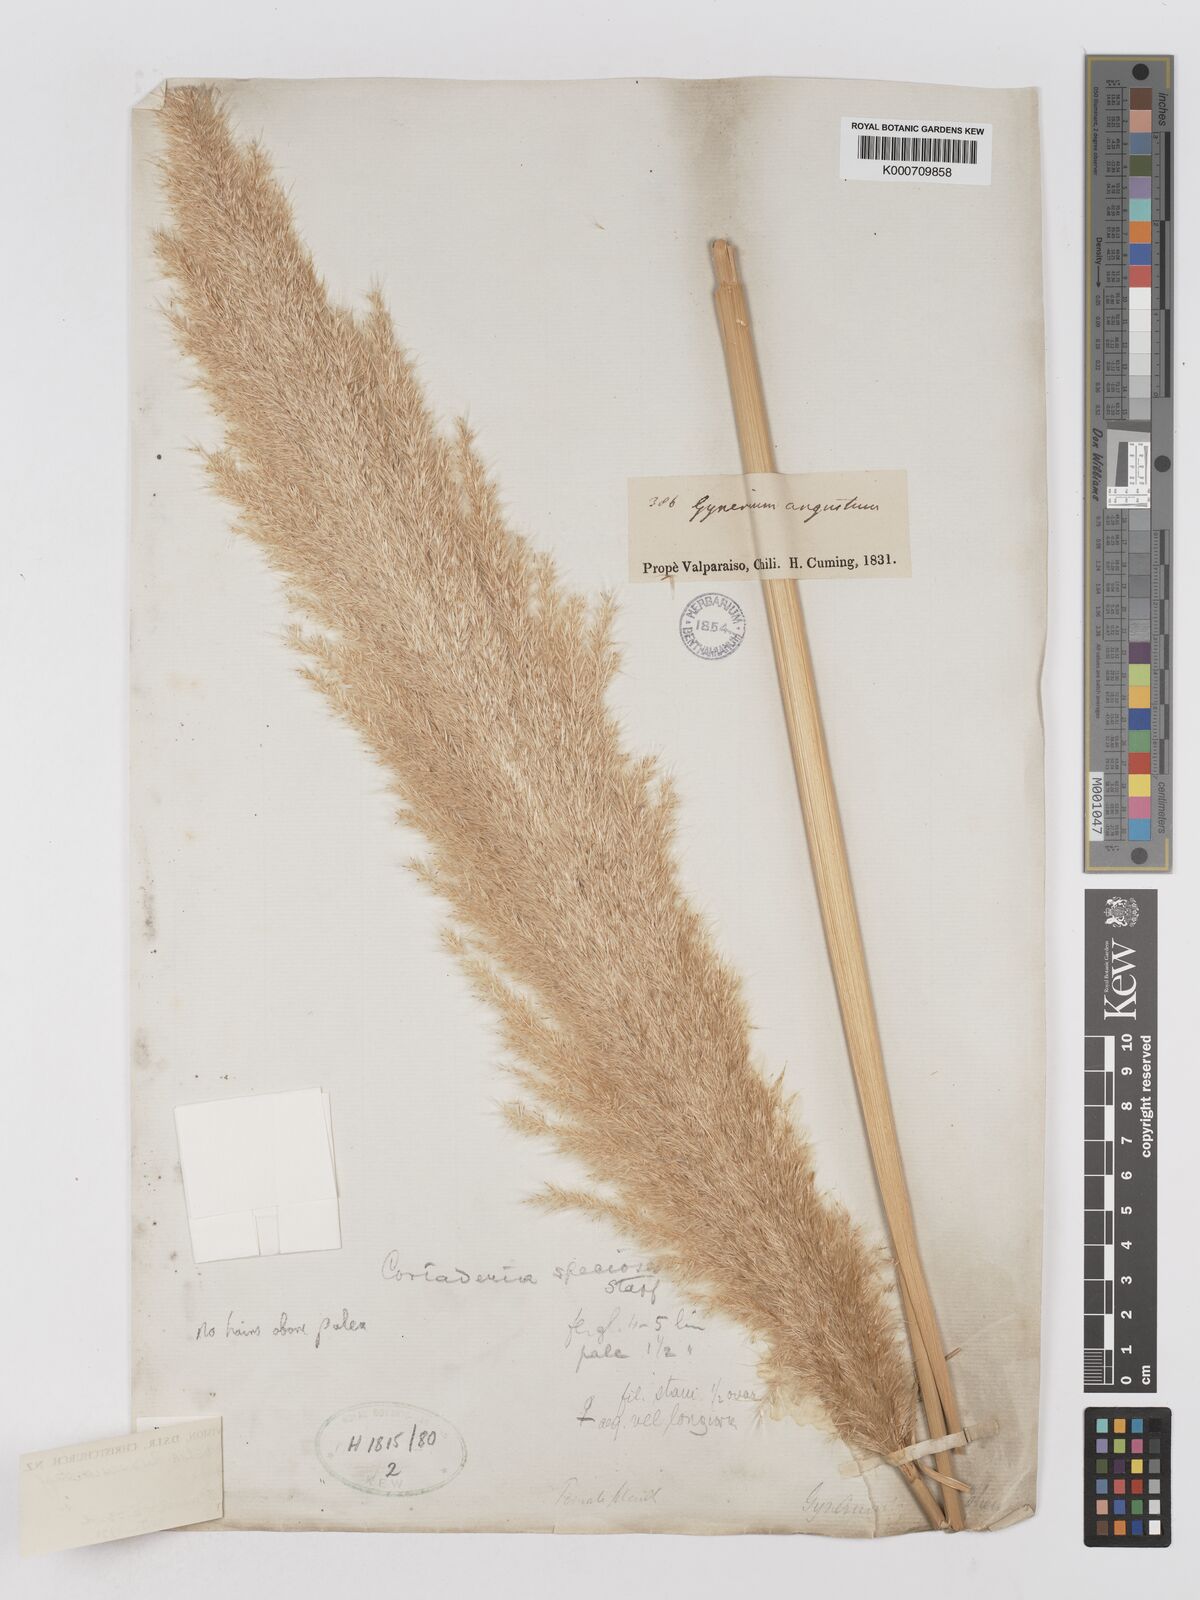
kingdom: Plantae
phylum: Tracheophyta
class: Liliopsida
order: Poales
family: Poaceae
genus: Cortaderia
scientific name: Cortaderia rudiuscula
